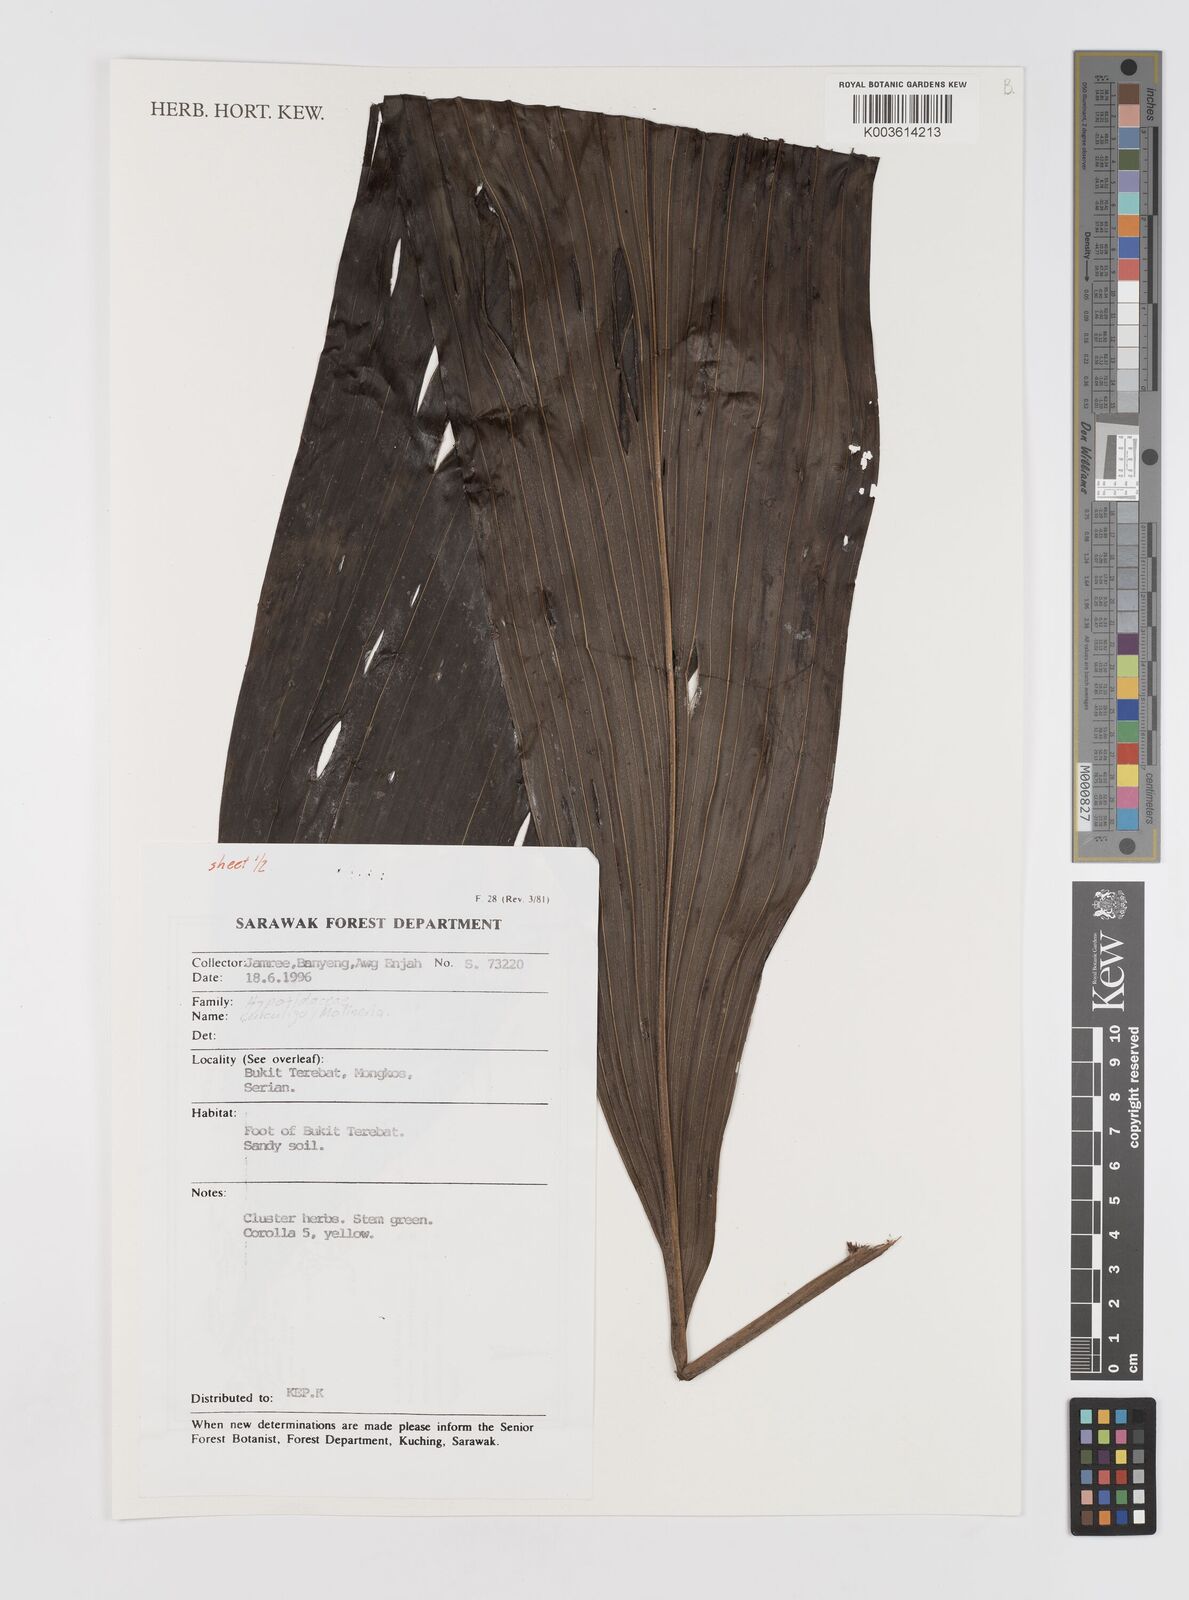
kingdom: Plantae
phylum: Tracheophyta
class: Liliopsida
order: Asparagales
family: Hypoxidaceae
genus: Curculigo
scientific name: Curculigo
